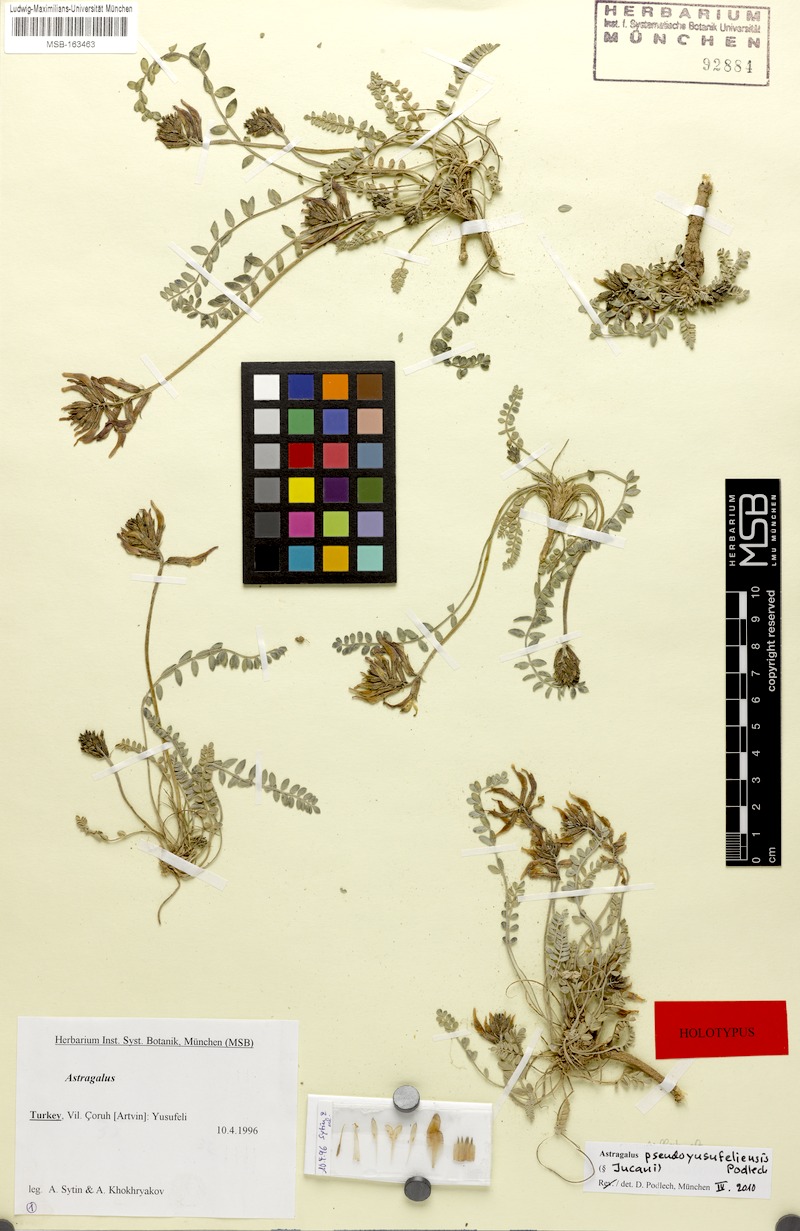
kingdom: Plantae
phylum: Tracheophyta
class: Magnoliopsida
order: Fabales
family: Fabaceae
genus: Astragalus
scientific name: Astragalus czorochensis
